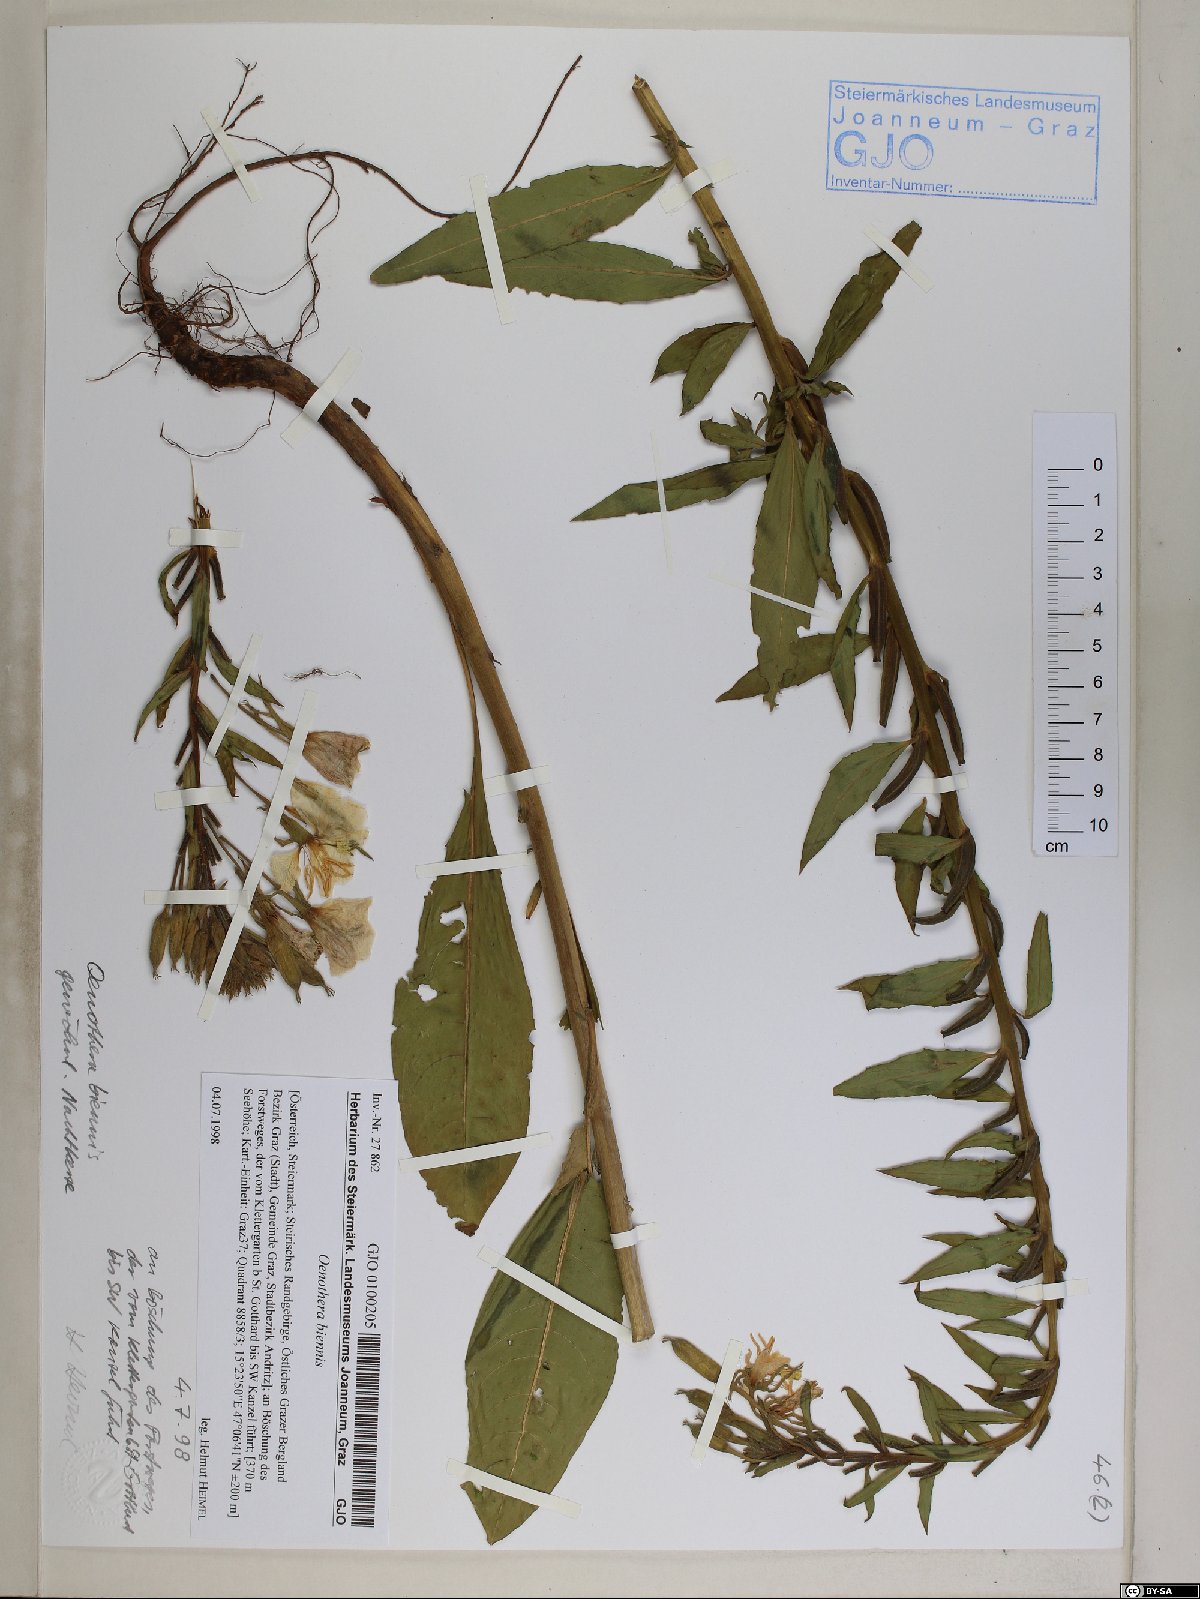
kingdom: Plantae
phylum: Tracheophyta
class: Magnoliopsida
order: Myrtales
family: Onagraceae
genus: Oenothera
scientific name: Oenothera biennis
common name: Common evening-primrose
